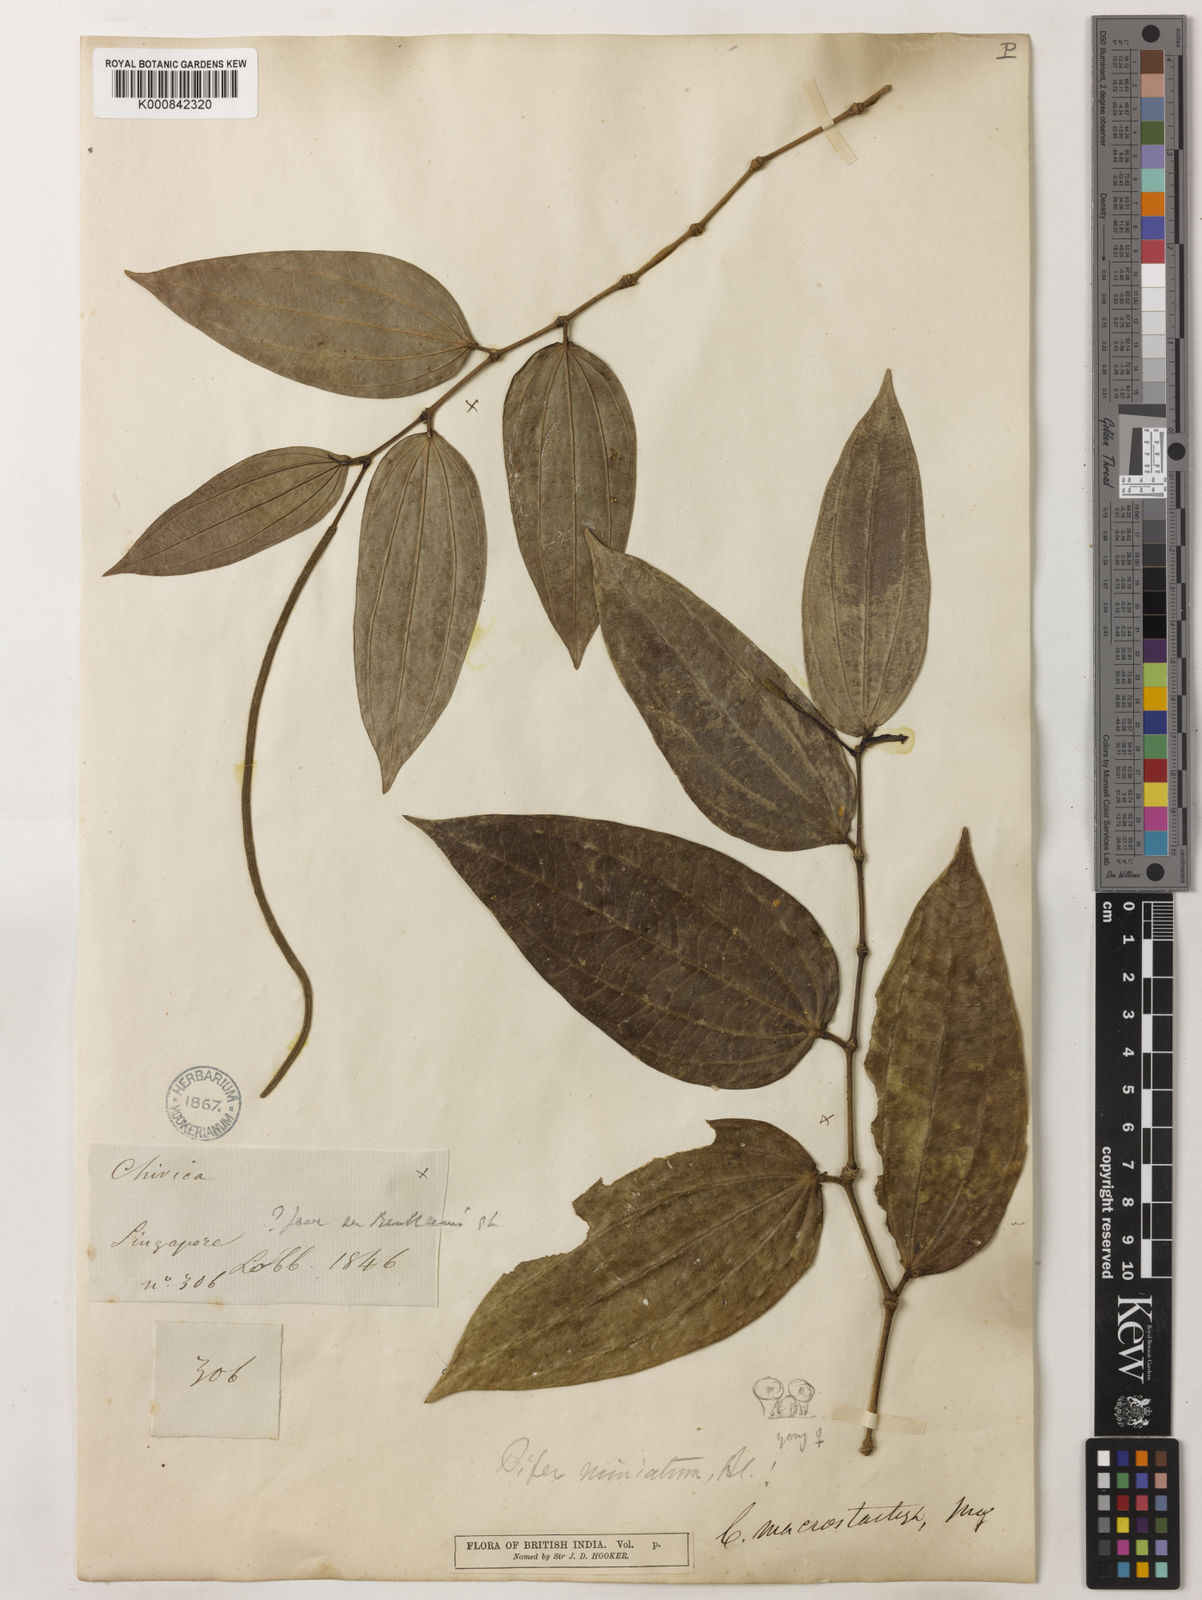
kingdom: Plantae
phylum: Tracheophyta
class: Magnoliopsida
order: Piperales
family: Piperaceae
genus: Piper
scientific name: Piper macropiper
